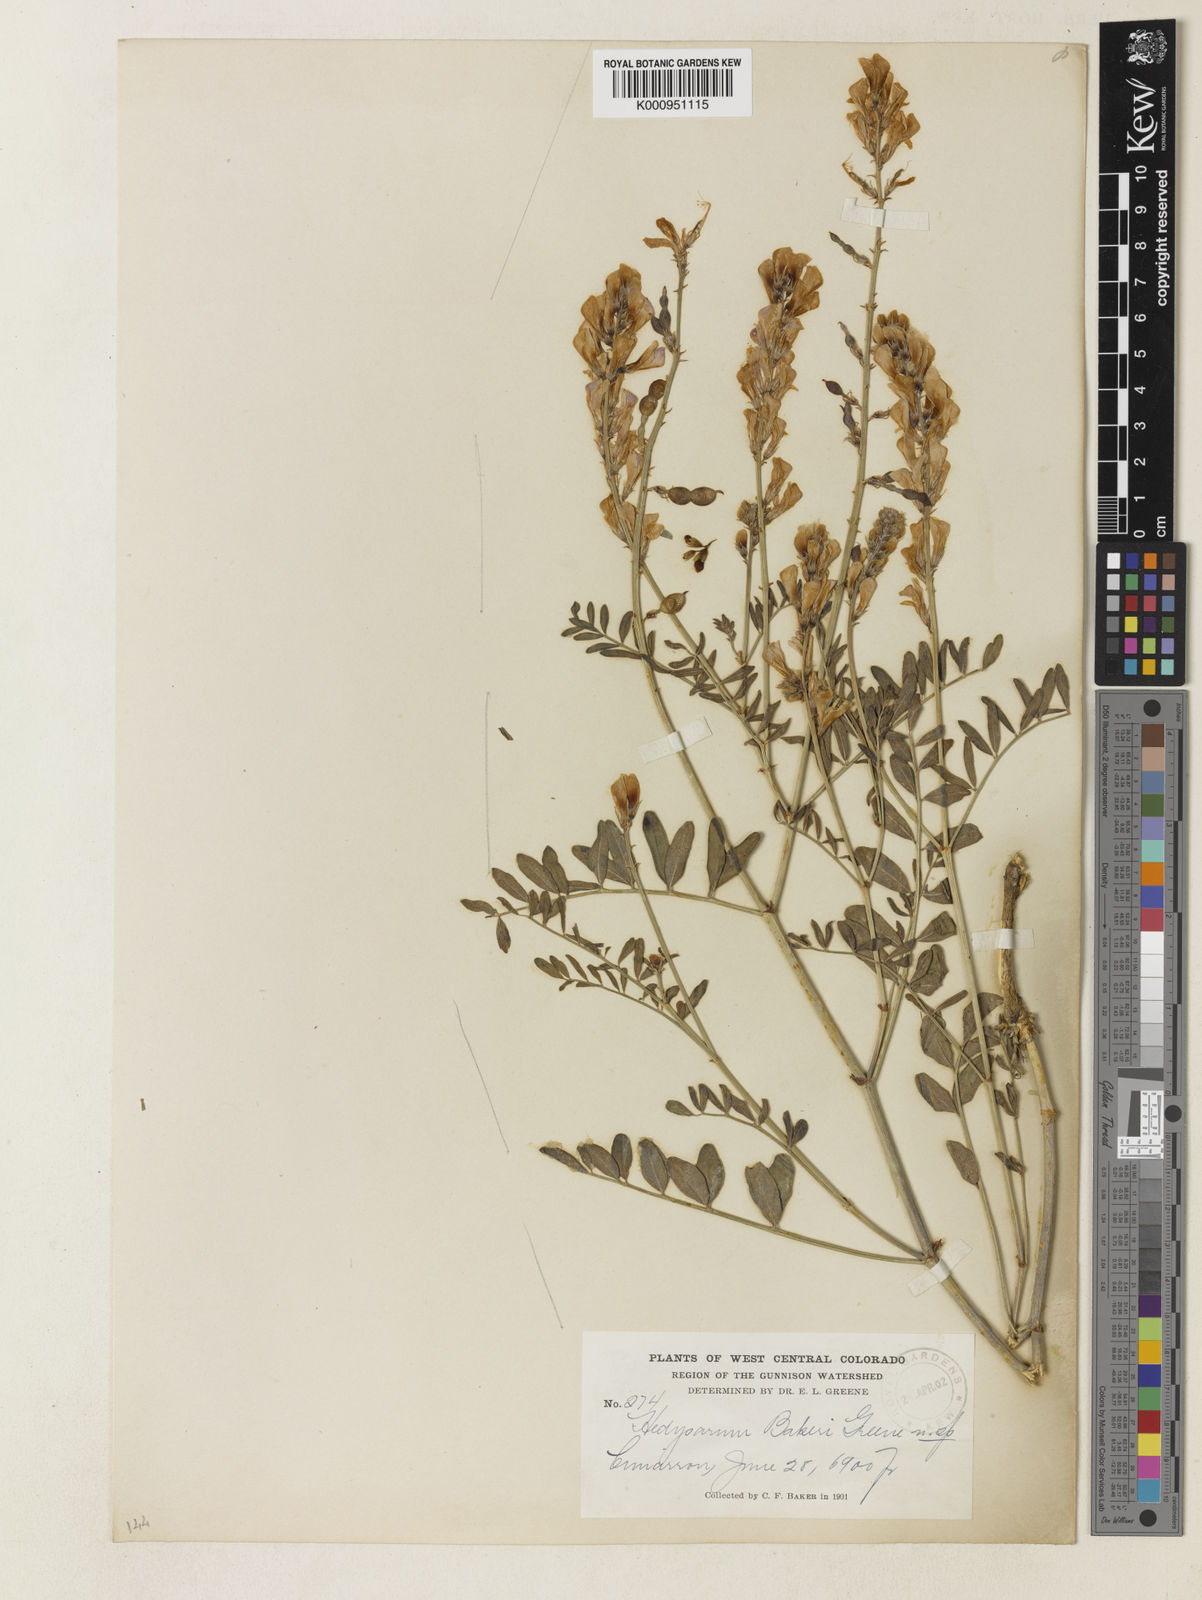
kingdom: Plantae
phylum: Tracheophyta
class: Magnoliopsida
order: Fabales
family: Fabaceae
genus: Hedysarum
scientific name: Hedysarum boreale
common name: Northern sweet-vetch
